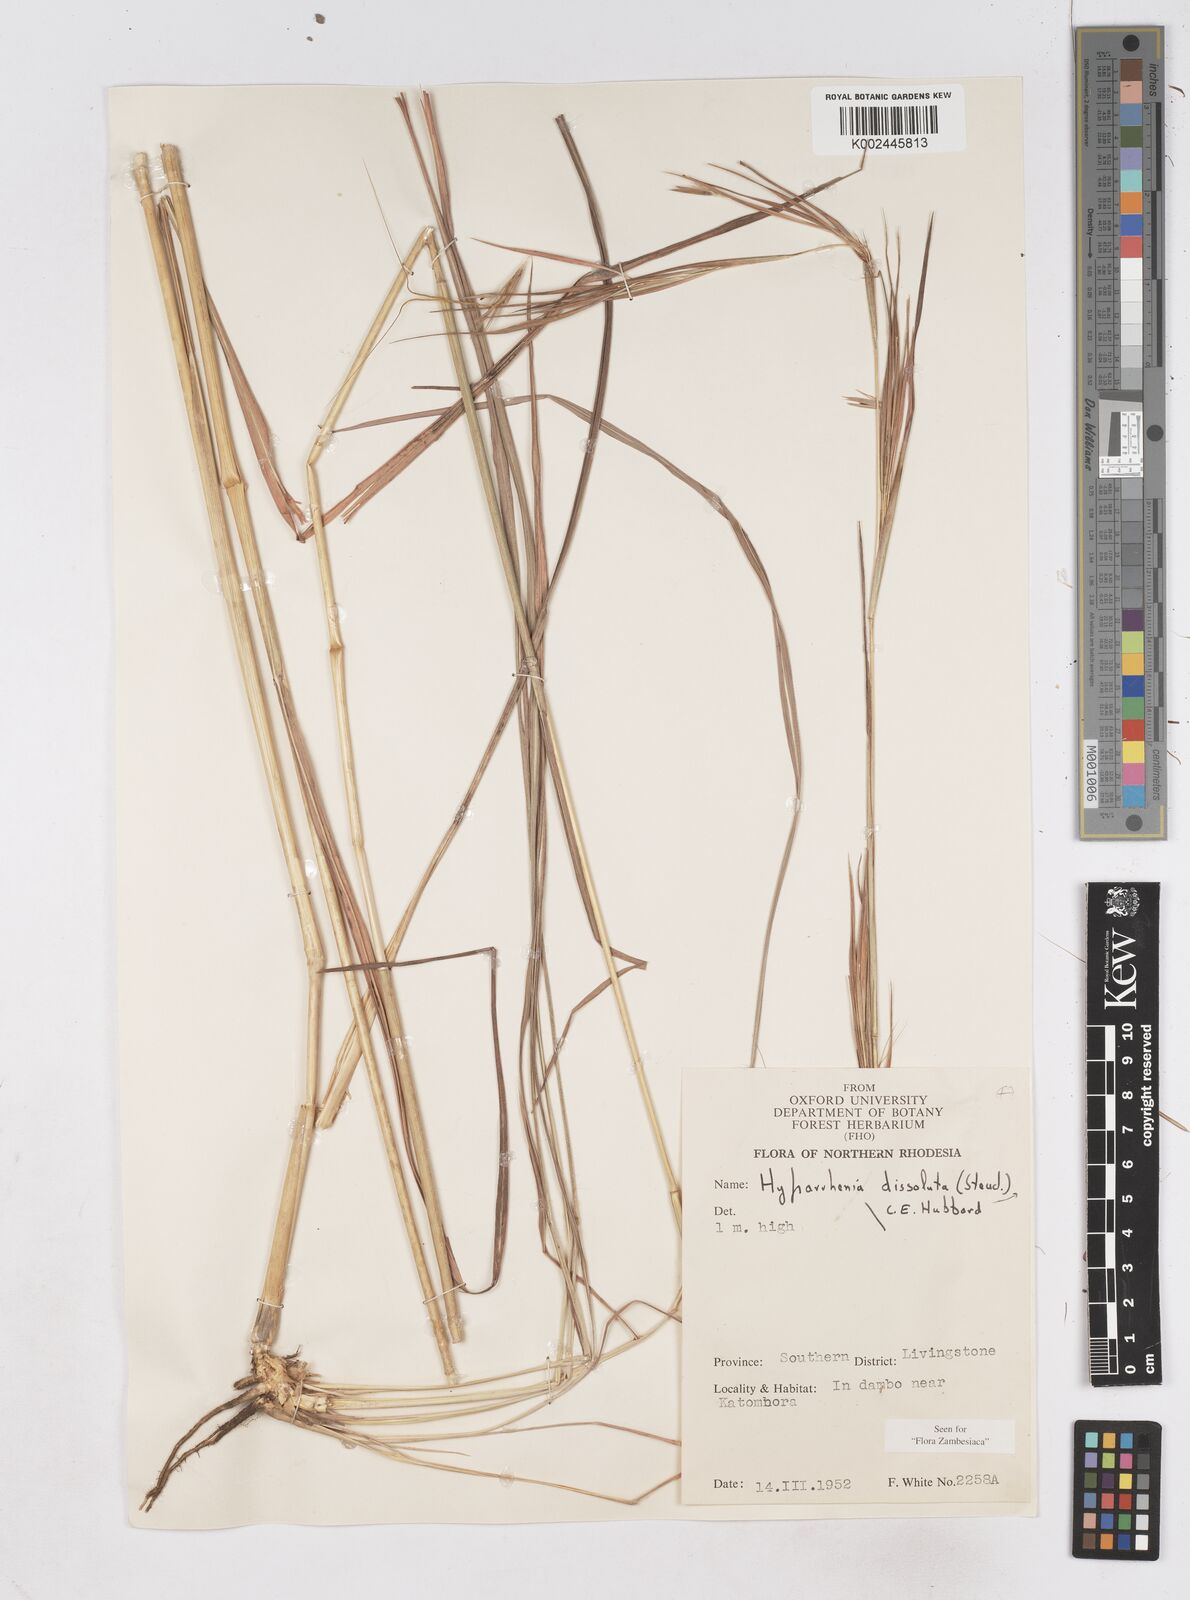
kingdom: Plantae
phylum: Tracheophyta
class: Liliopsida
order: Poales
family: Poaceae
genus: Hyperthelia
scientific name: Hyperthelia dissoluta
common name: Yellow thatching grass
